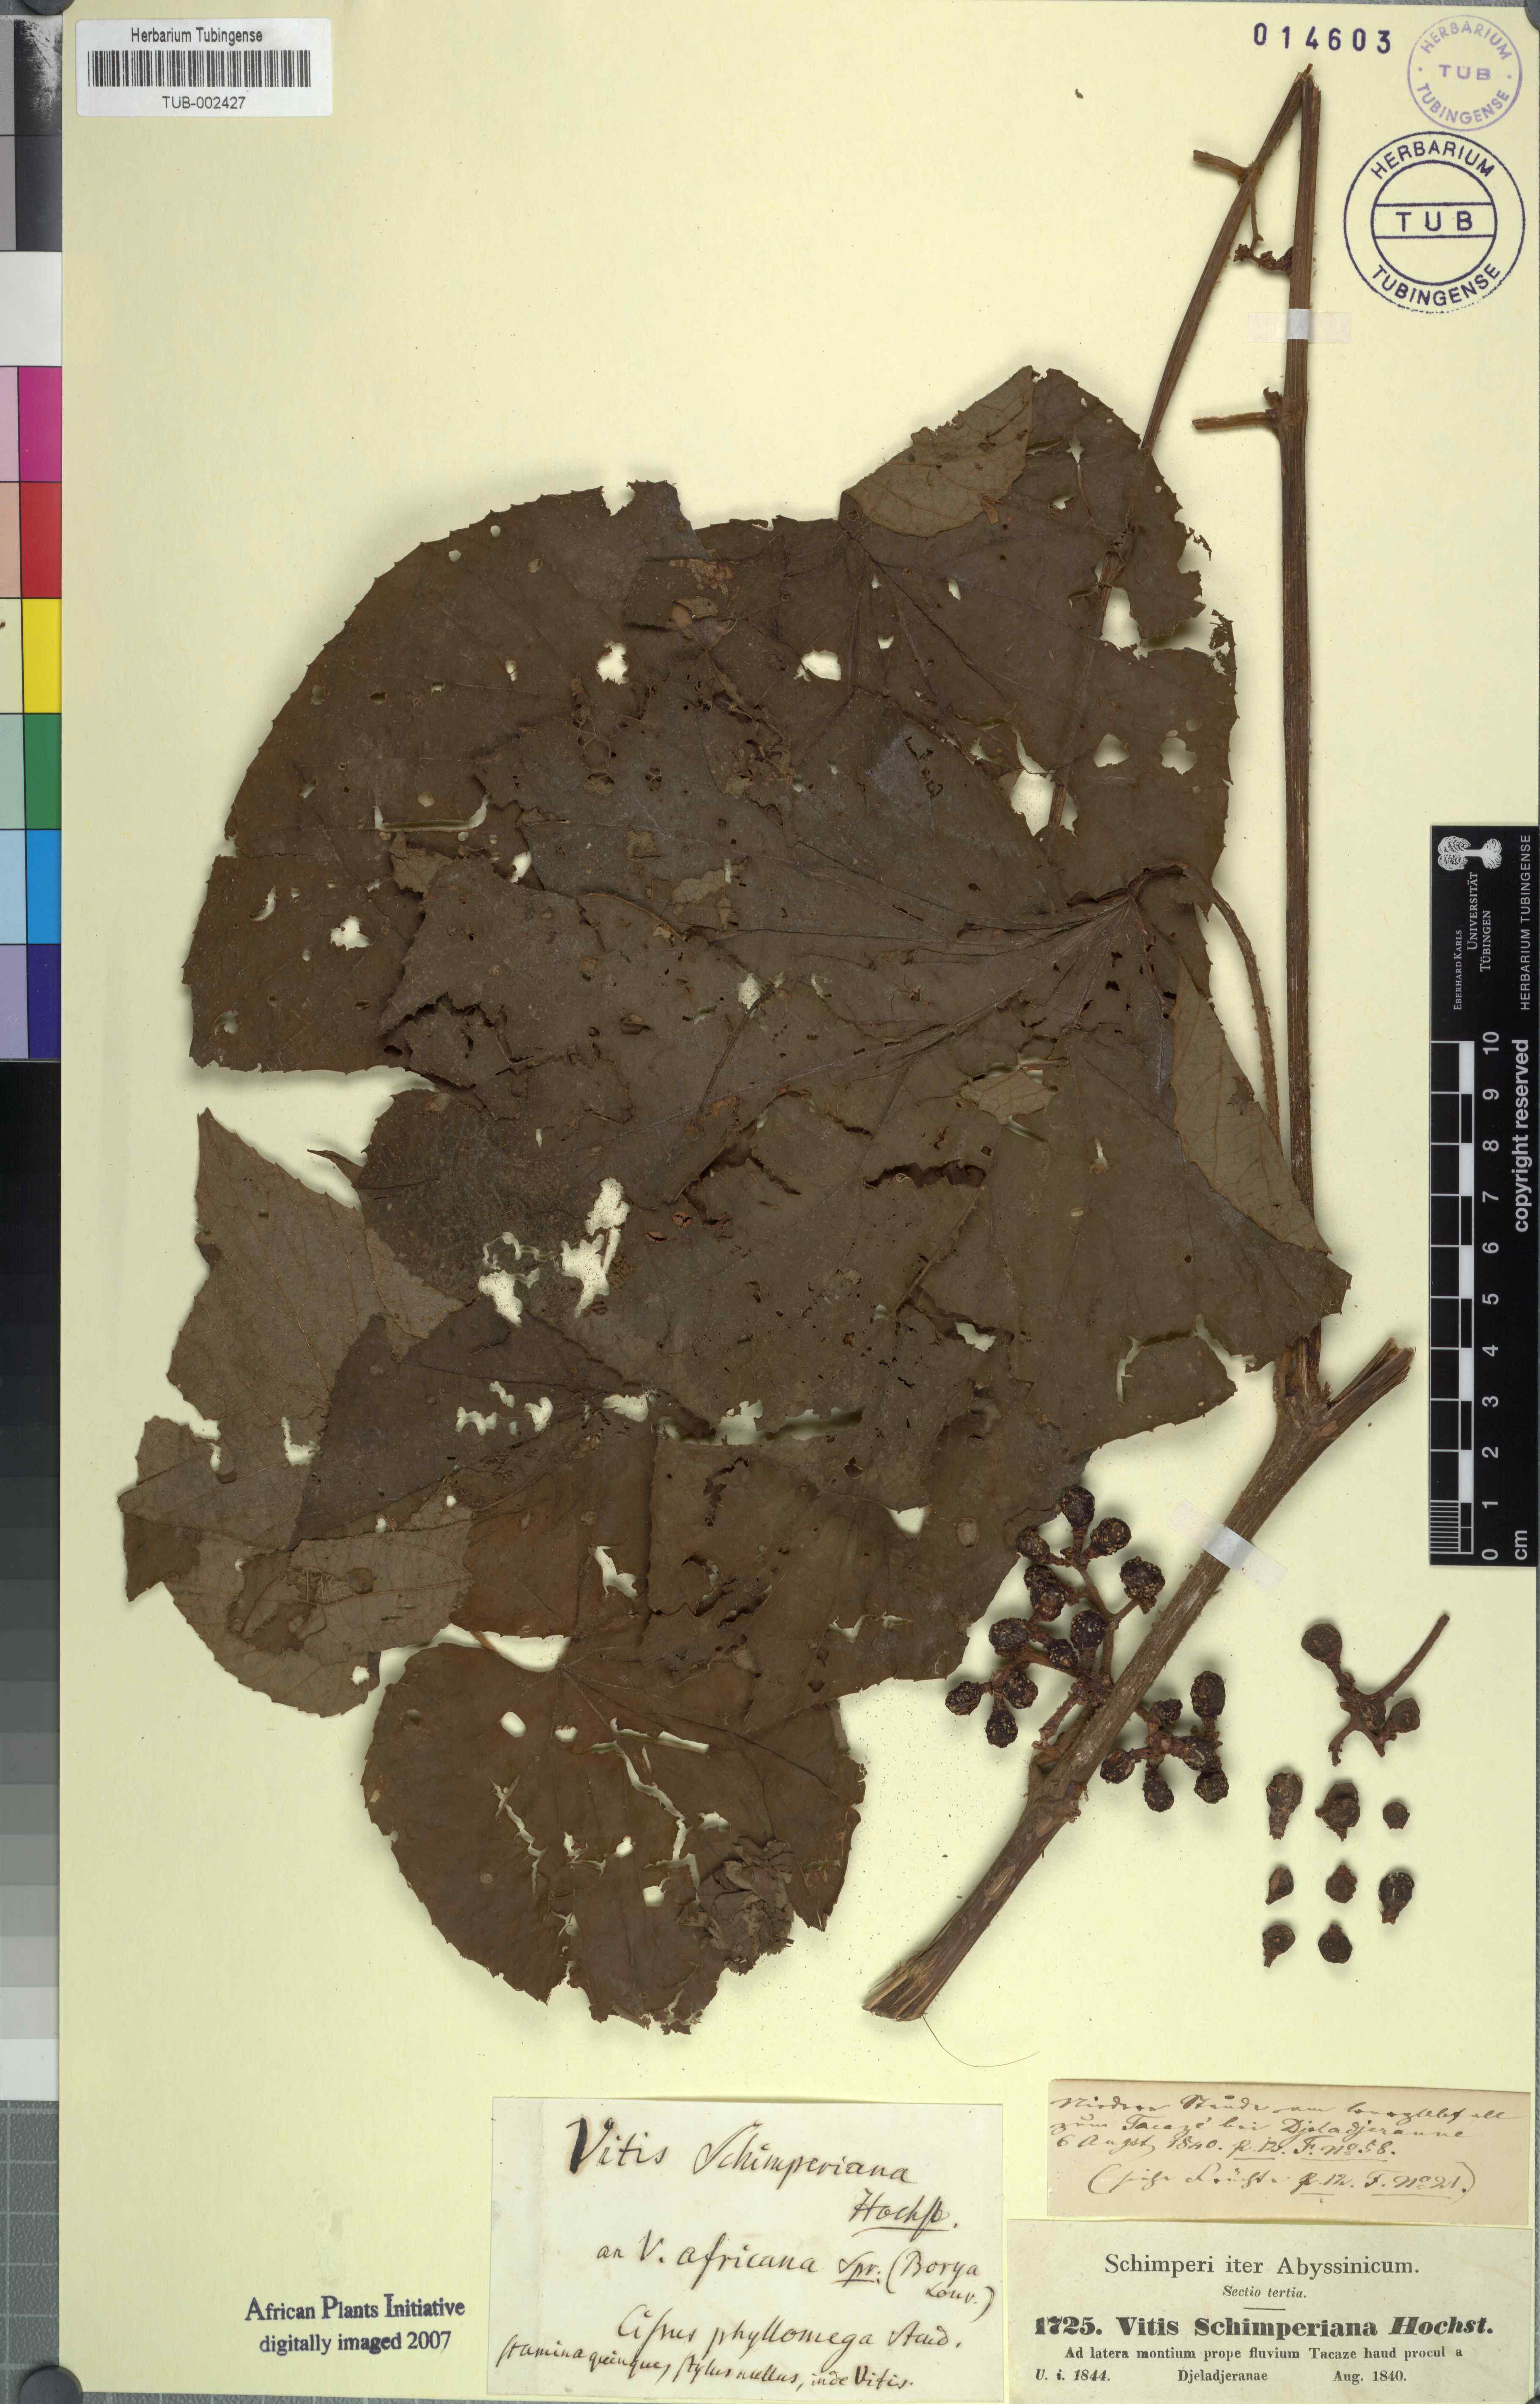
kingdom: Plantae
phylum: Tracheophyta
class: Magnoliopsida
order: Vitales
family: Vitaceae
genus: Ampelocissus
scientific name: Ampelocissus schimperiana
